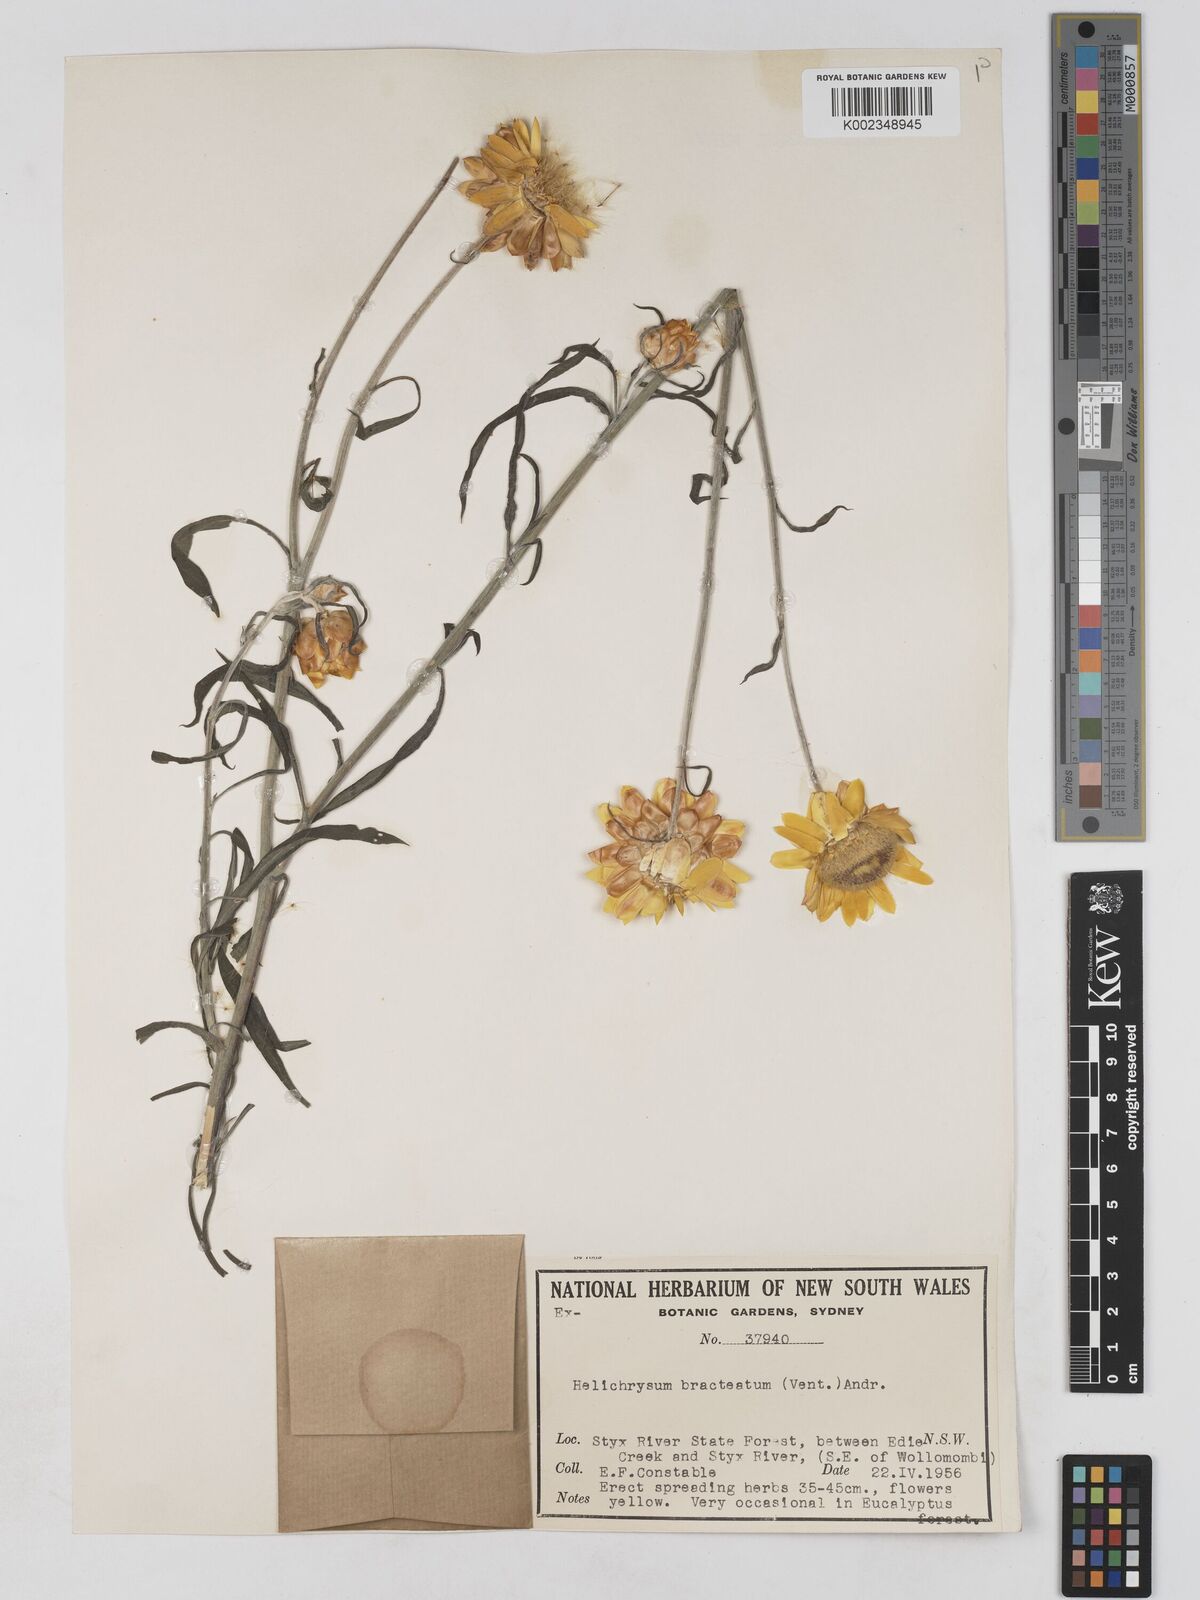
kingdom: Plantae
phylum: Tracheophyta
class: Magnoliopsida
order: Asterales
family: Asteraceae
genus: Xerochrysum
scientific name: Xerochrysum bracteatum
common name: Bracted strawflower
